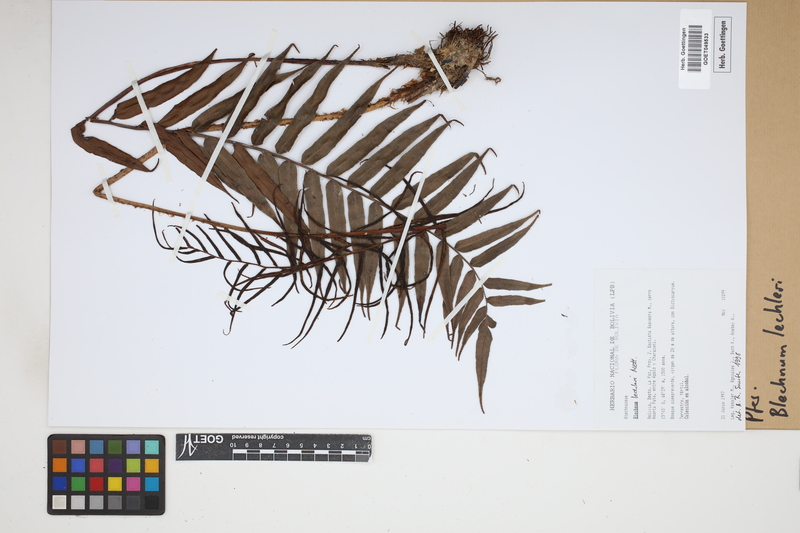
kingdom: Plantae
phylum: Tracheophyta
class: Polypodiopsida
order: Polypodiales
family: Blechnaceae
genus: Parablechnum
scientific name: Parablechnum lechleri
